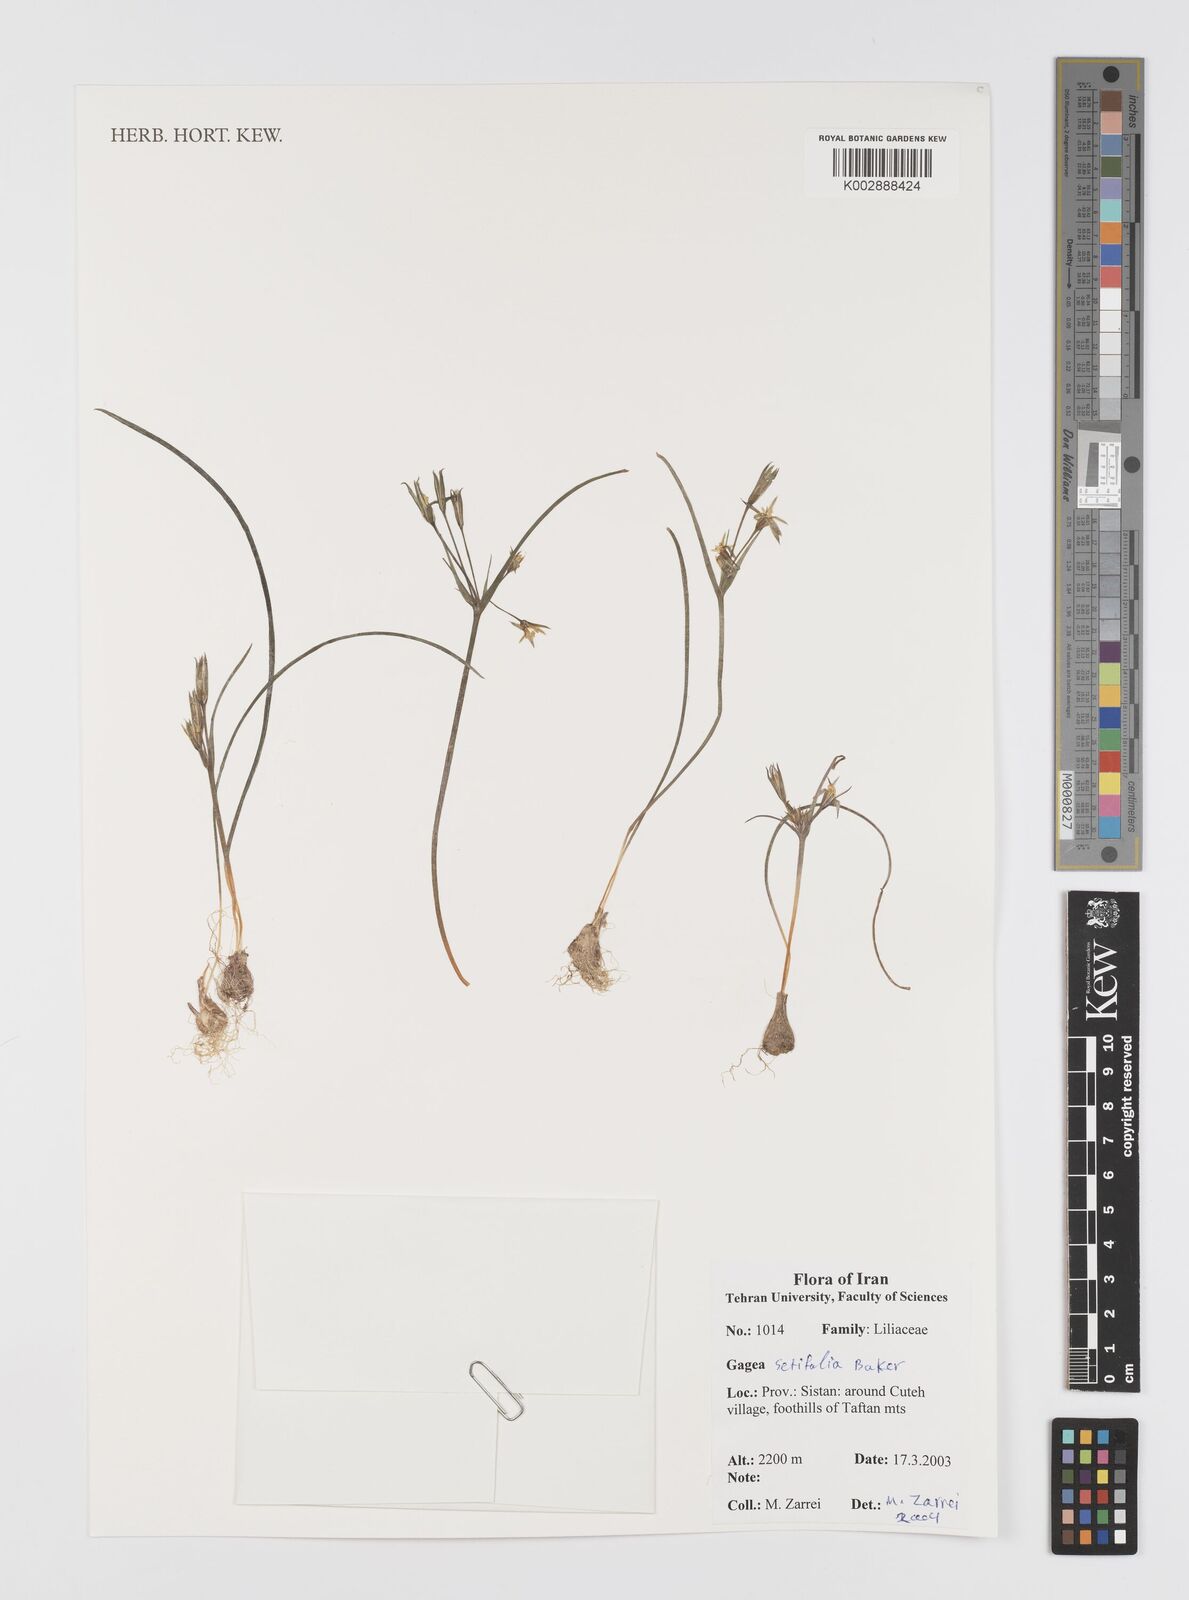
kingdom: Plantae
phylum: Tracheophyta
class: Liliopsida
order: Liliales
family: Liliaceae
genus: Gagea
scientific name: Gagea setifolia
